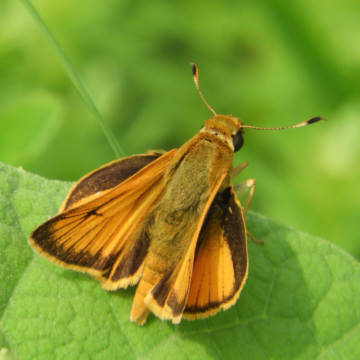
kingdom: Animalia
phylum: Arthropoda
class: Insecta
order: Lepidoptera
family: Hesperiidae
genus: Atrytone
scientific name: Atrytone delaware
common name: Delaware Skipper
